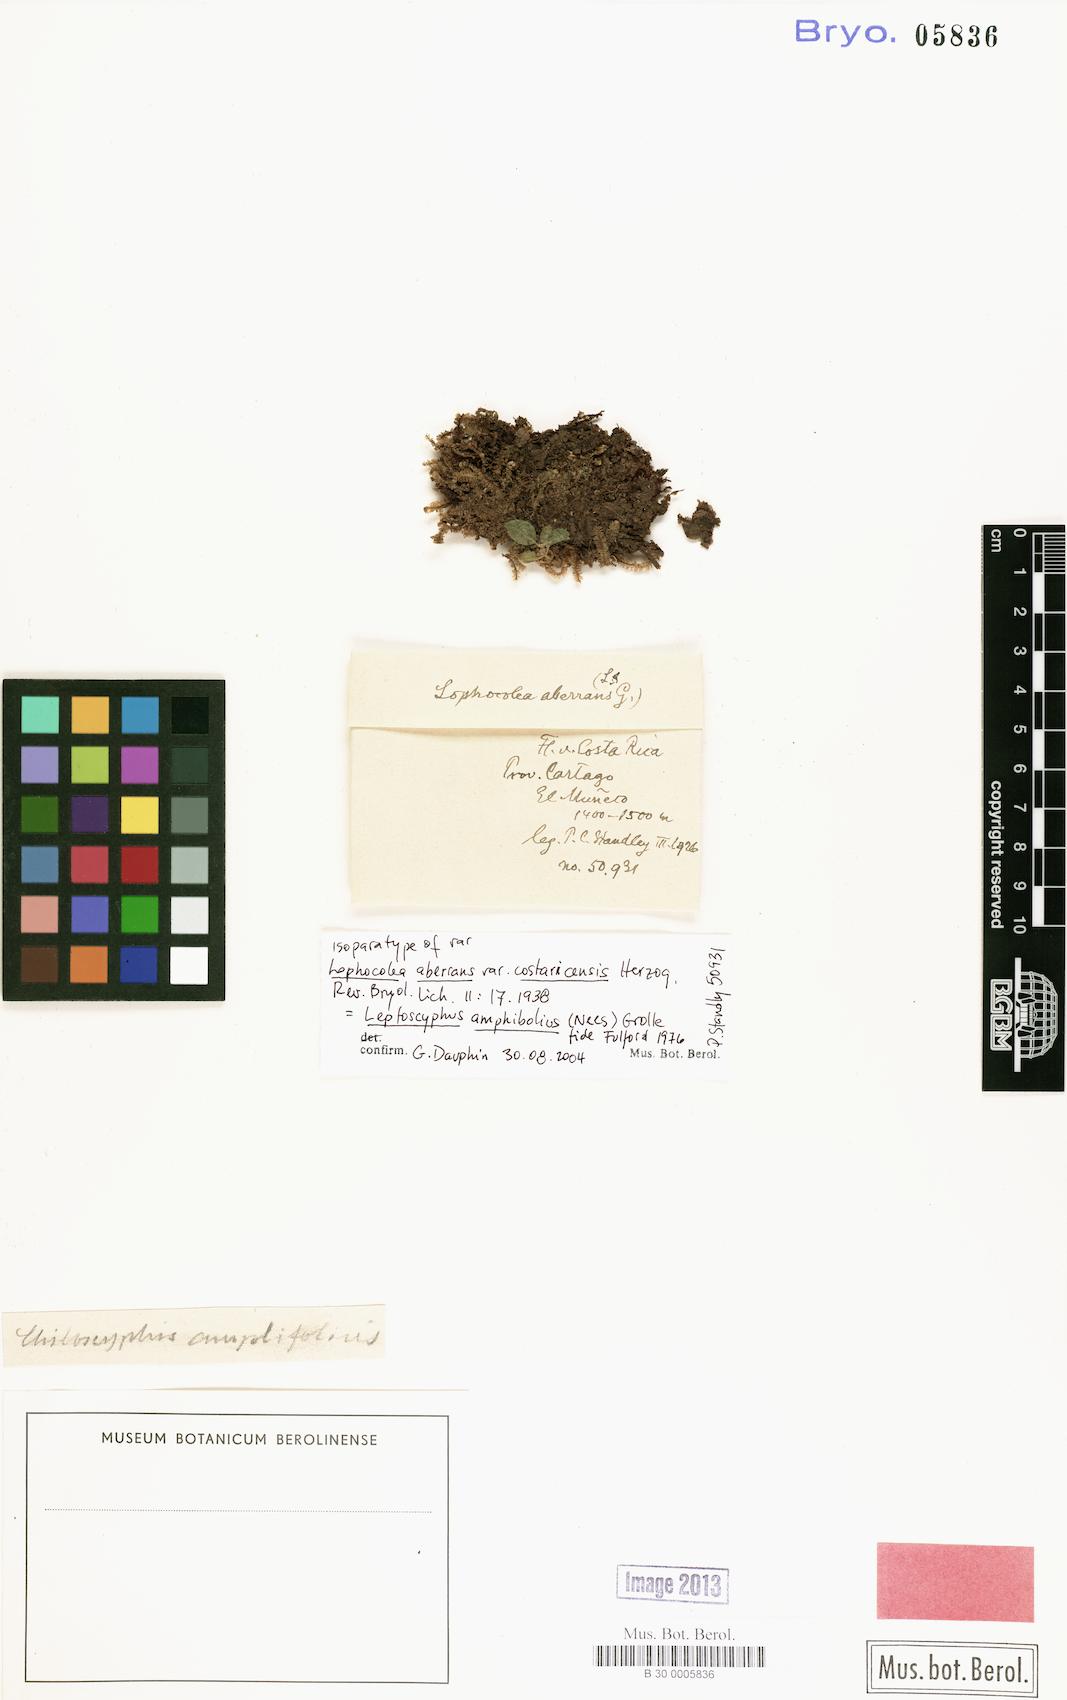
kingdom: Plantae
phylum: Marchantiophyta
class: Jungermanniopsida
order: Jungermanniales
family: Lophocoleaceae
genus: Lophocolea
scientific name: Lophocolea aberrans
